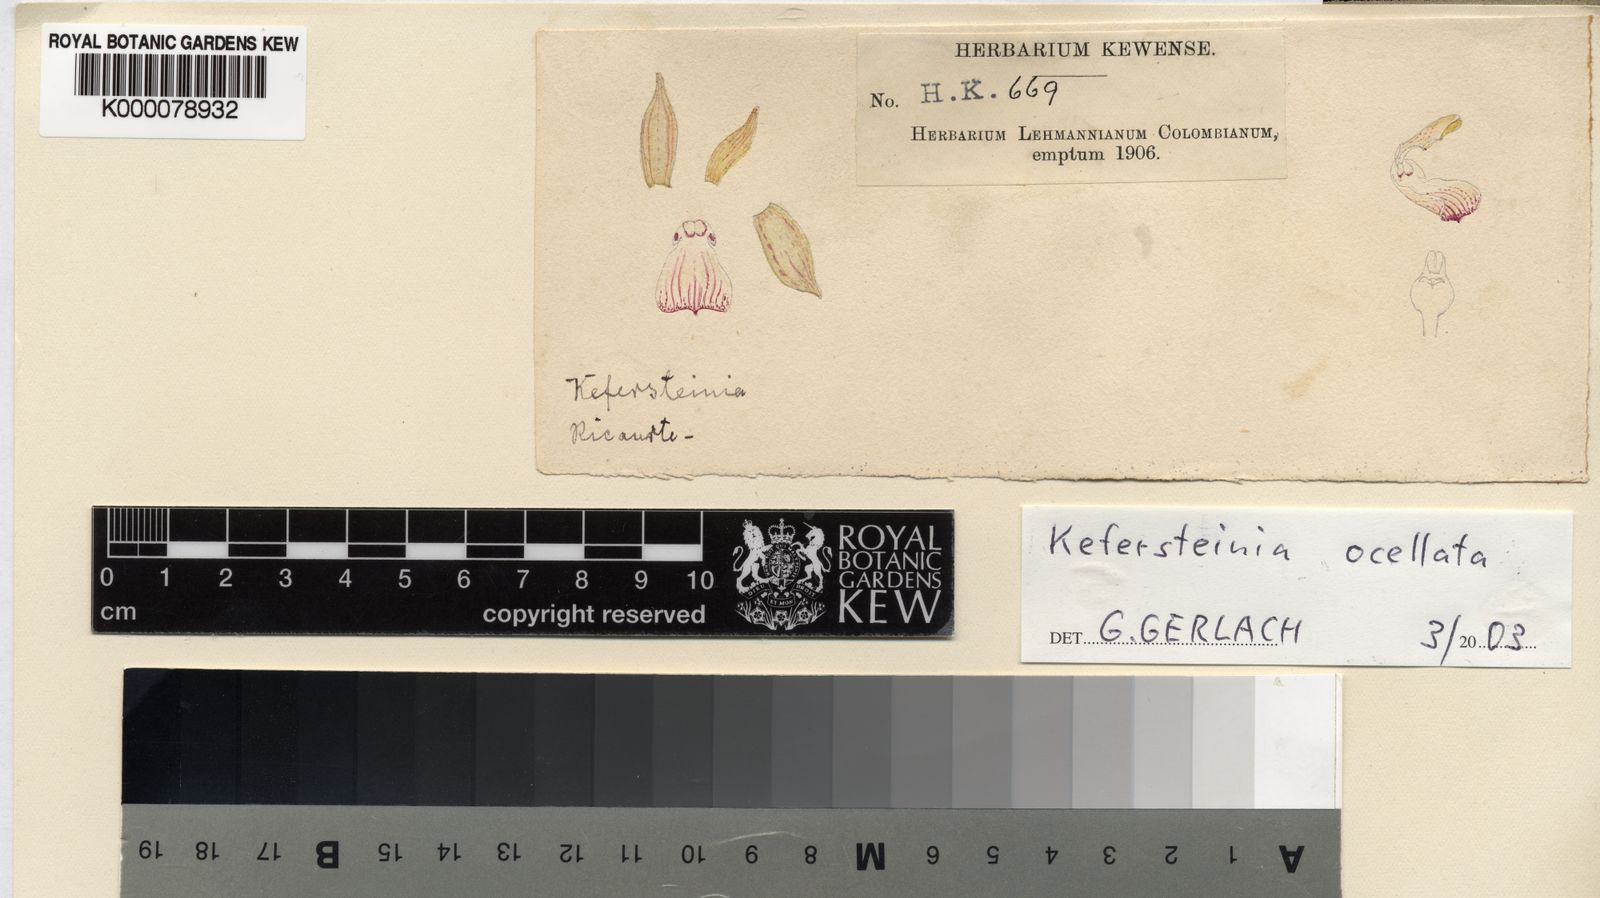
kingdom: Plantae
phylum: Tracheophyta
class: Liliopsida
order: Asparagales
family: Orchidaceae
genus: Kefersteinia
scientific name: Kefersteinia ocellata
